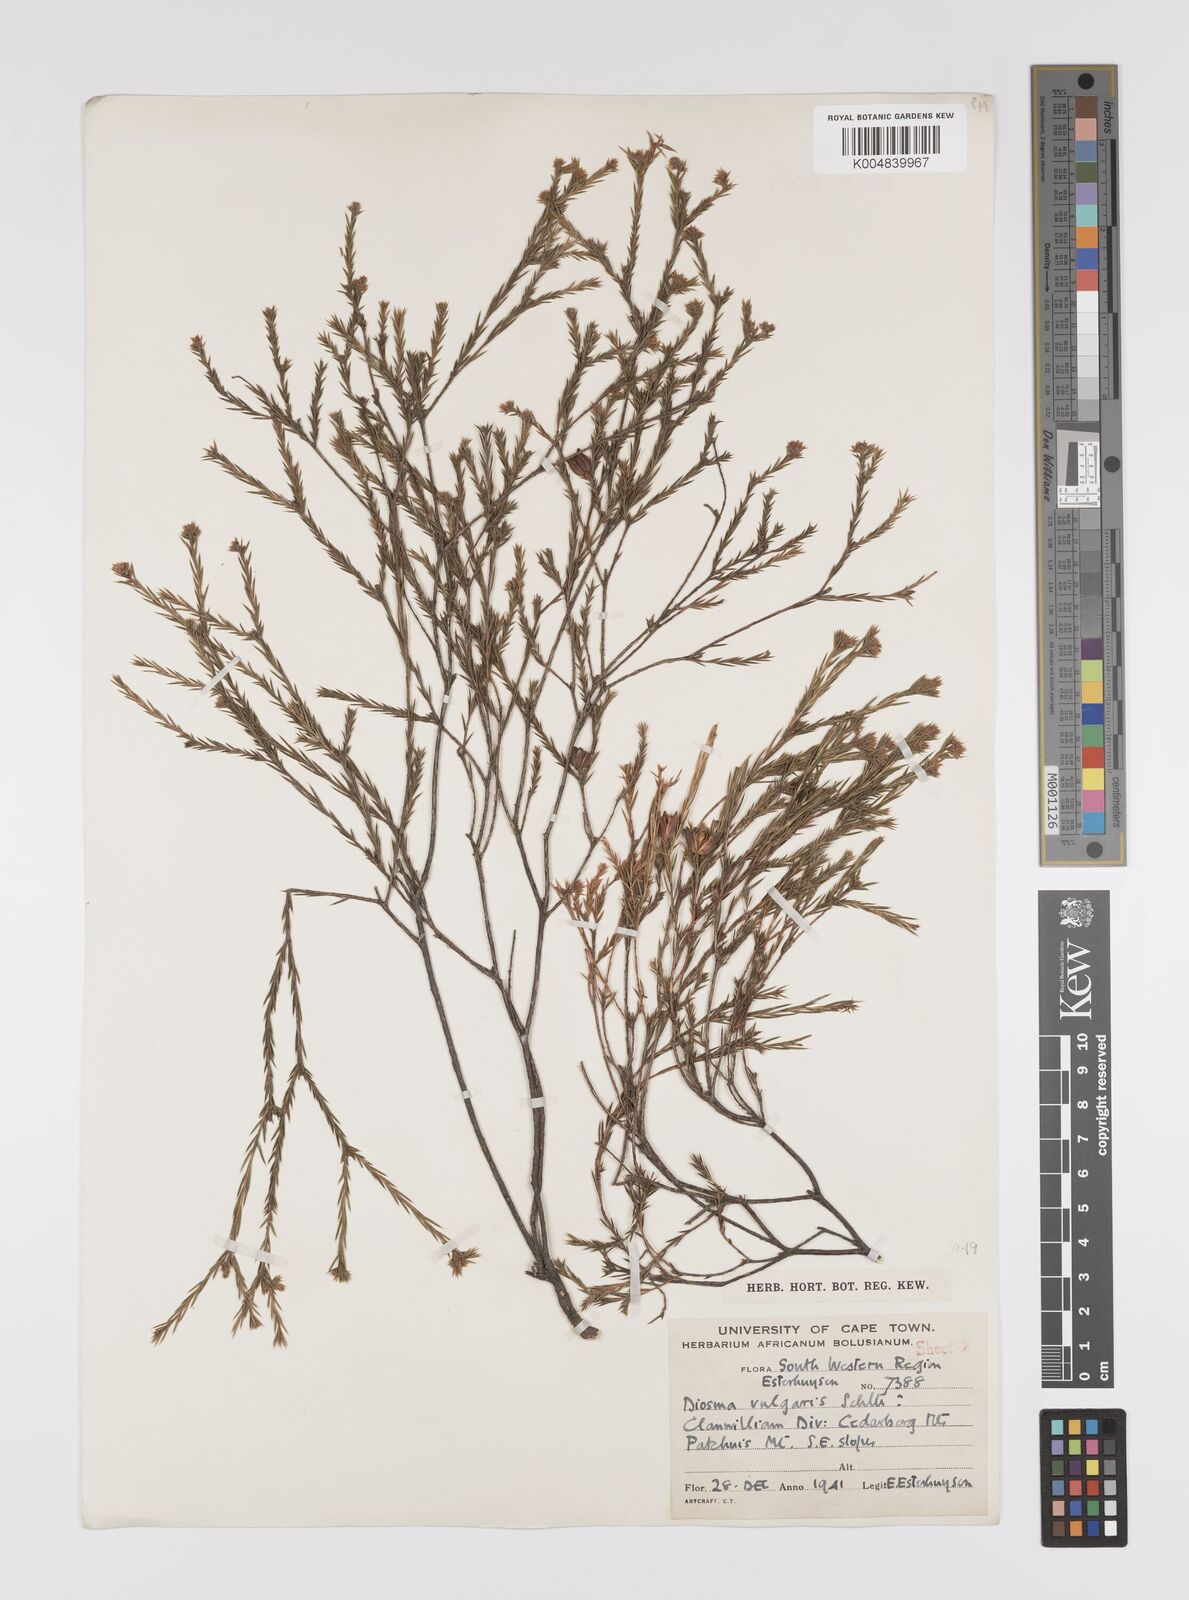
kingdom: Plantae
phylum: Tracheophyta
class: Magnoliopsida
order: Sapindales
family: Rutaceae
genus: Diosma
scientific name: Diosma acmaeophylla
